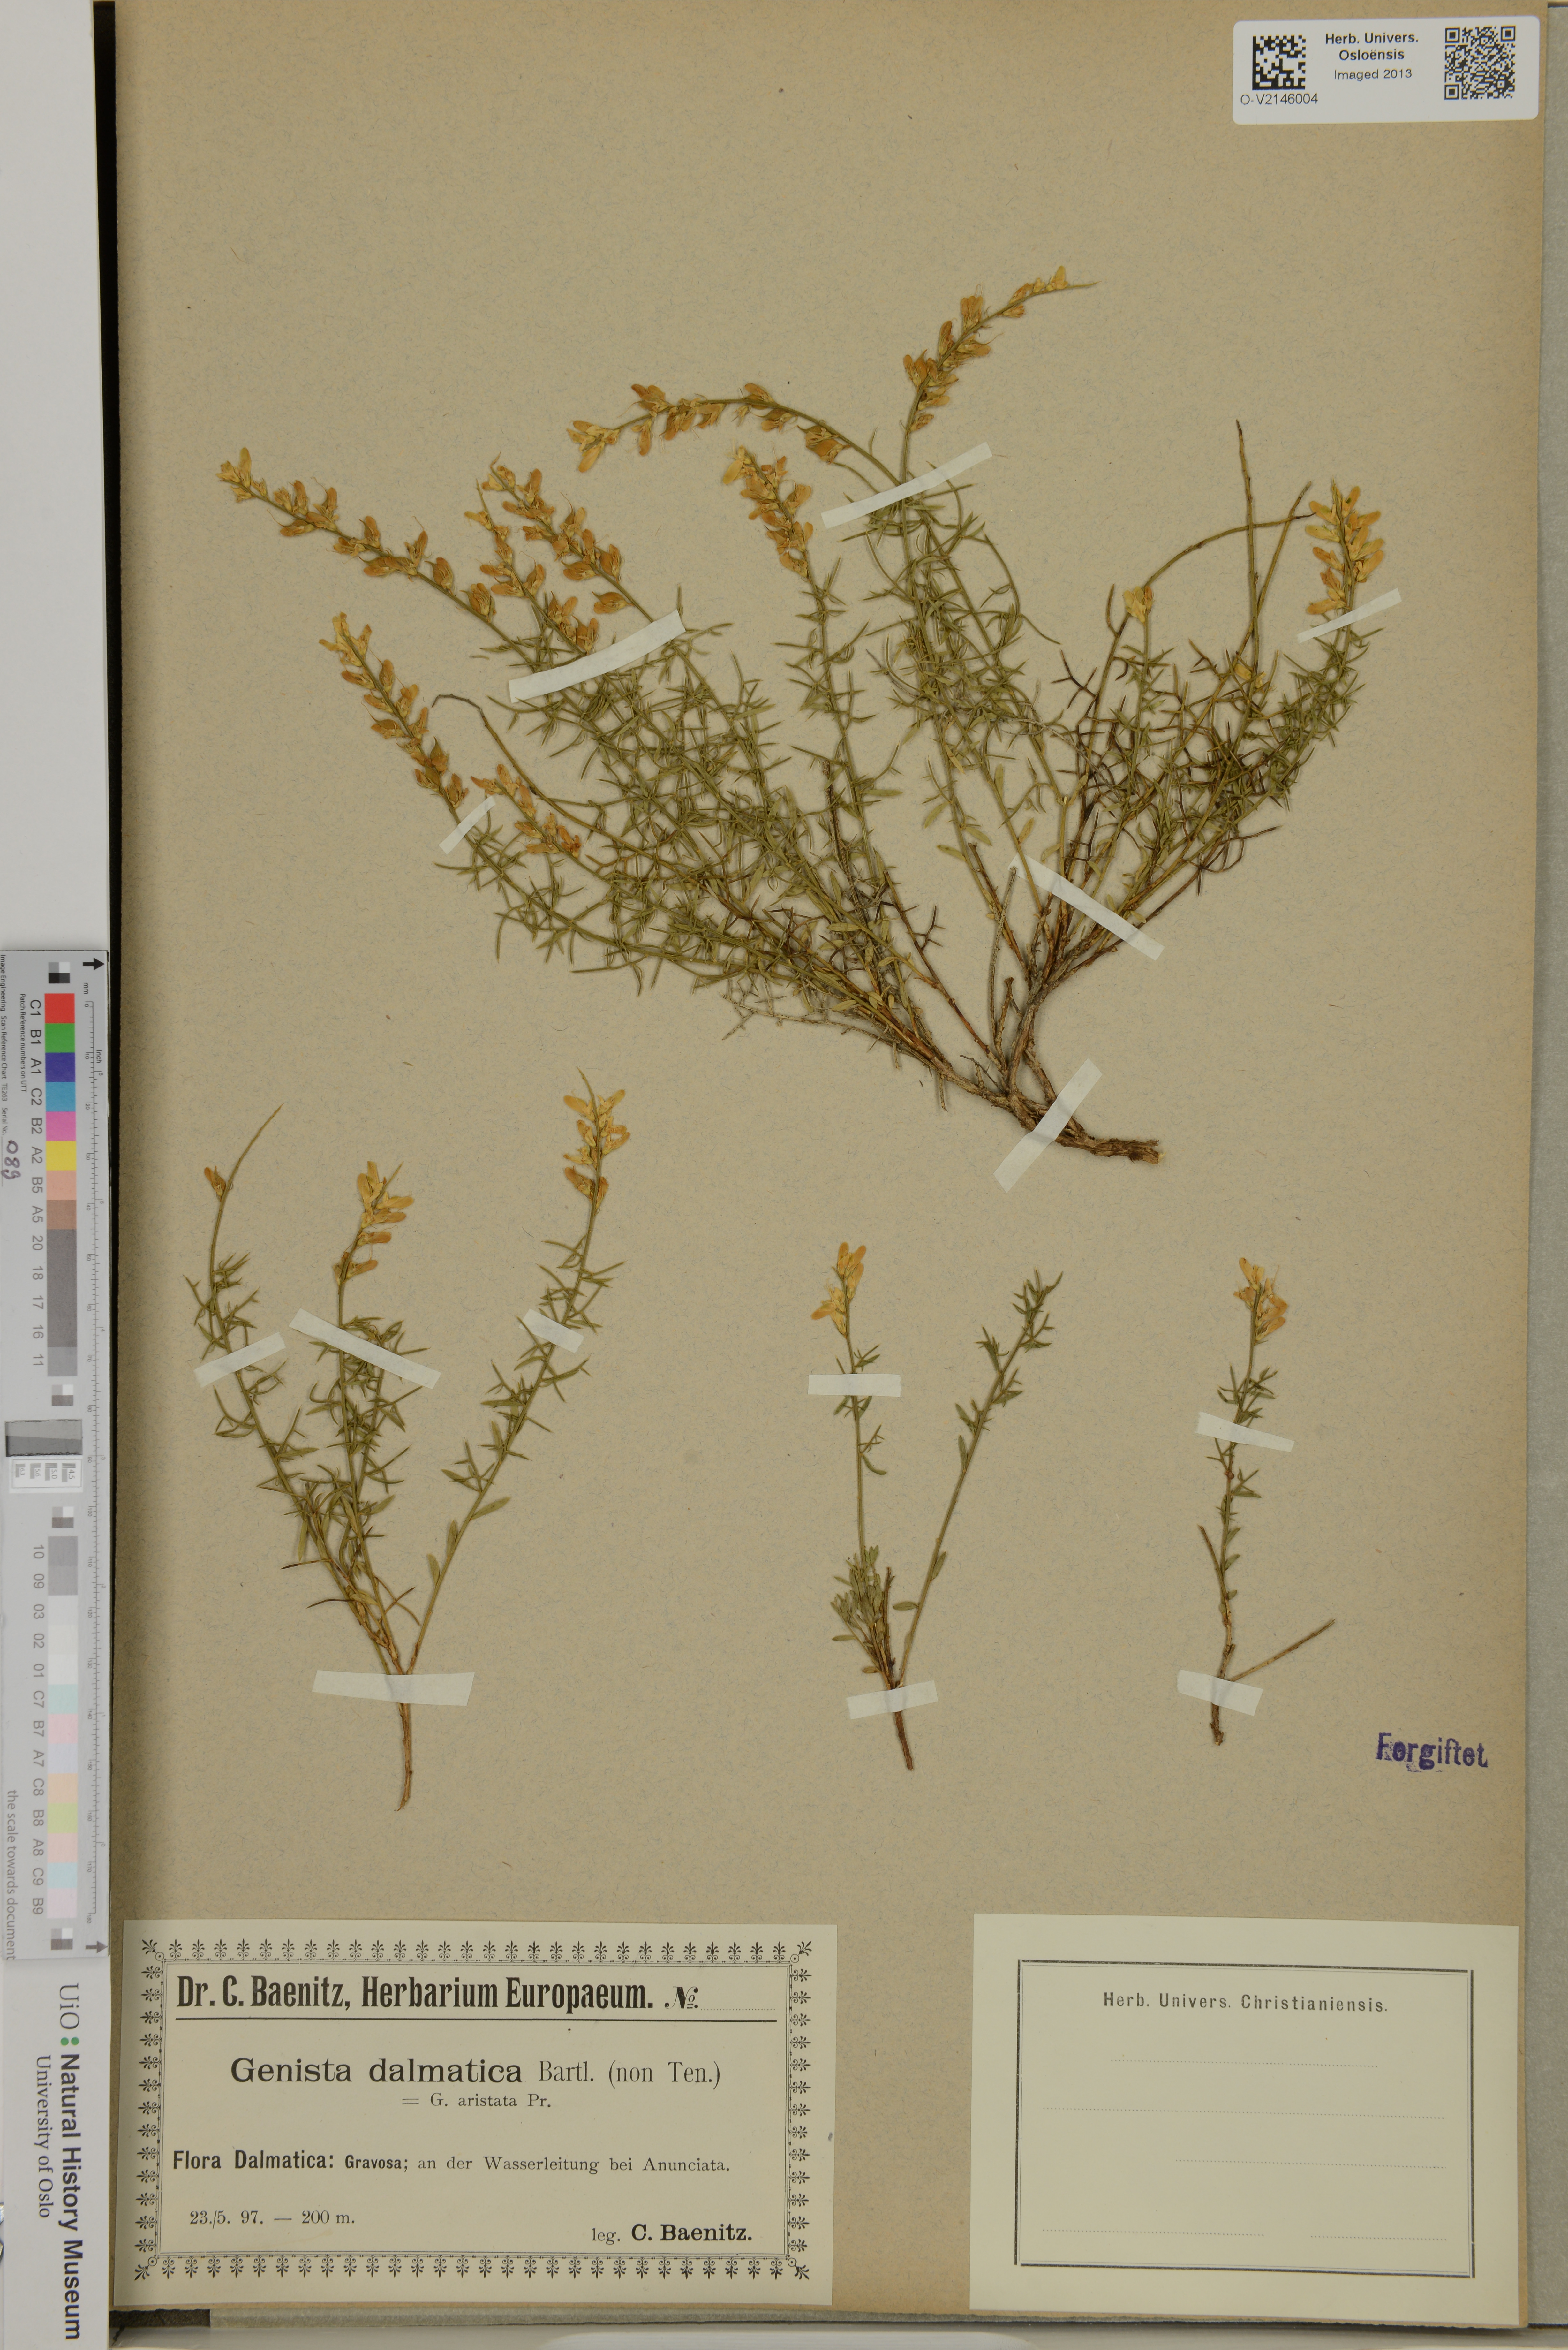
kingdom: Plantae
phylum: Tracheophyta
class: Magnoliopsida
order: Fabales
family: Fabaceae
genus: Genista
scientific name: Genista
